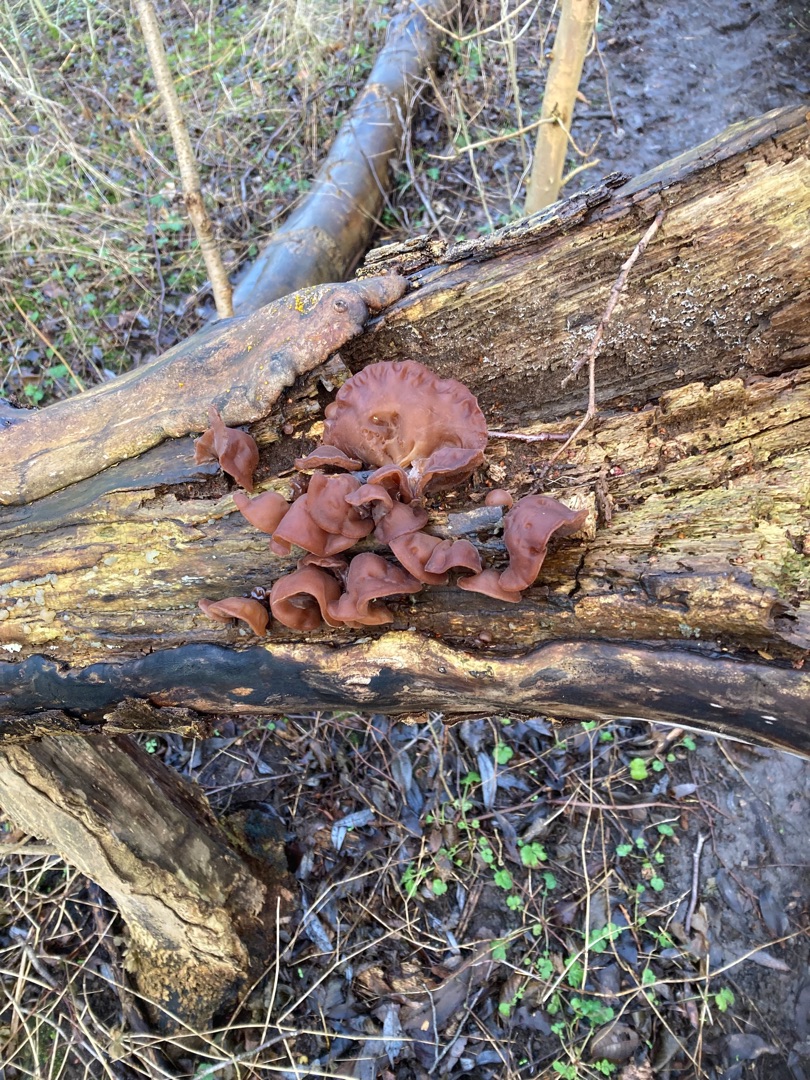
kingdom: Fungi
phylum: Basidiomycota
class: Agaricomycetes
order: Auriculariales
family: Auriculariaceae
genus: Auricularia
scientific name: Auricularia auricula-judae
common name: Almindelig judasøre
